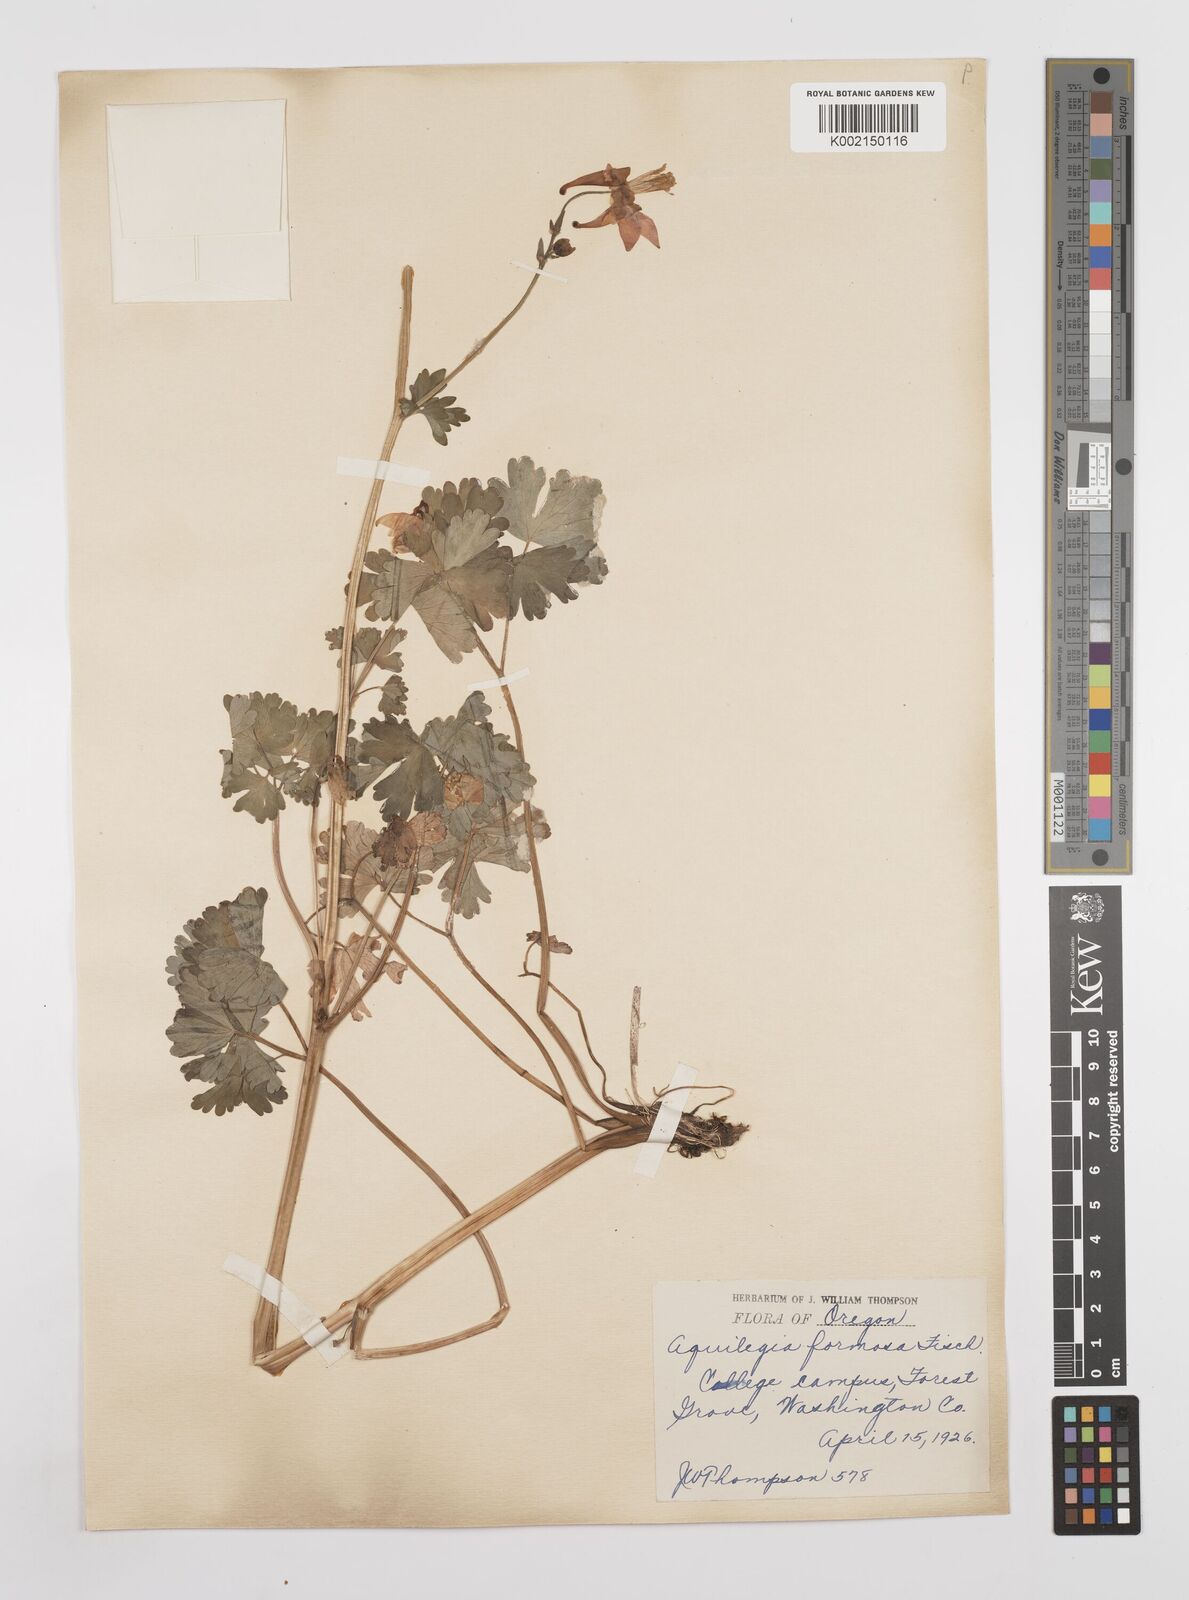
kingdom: Plantae
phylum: Tracheophyta
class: Magnoliopsida
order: Ranunculales
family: Ranunculaceae
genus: Aquilegia
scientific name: Aquilegia
